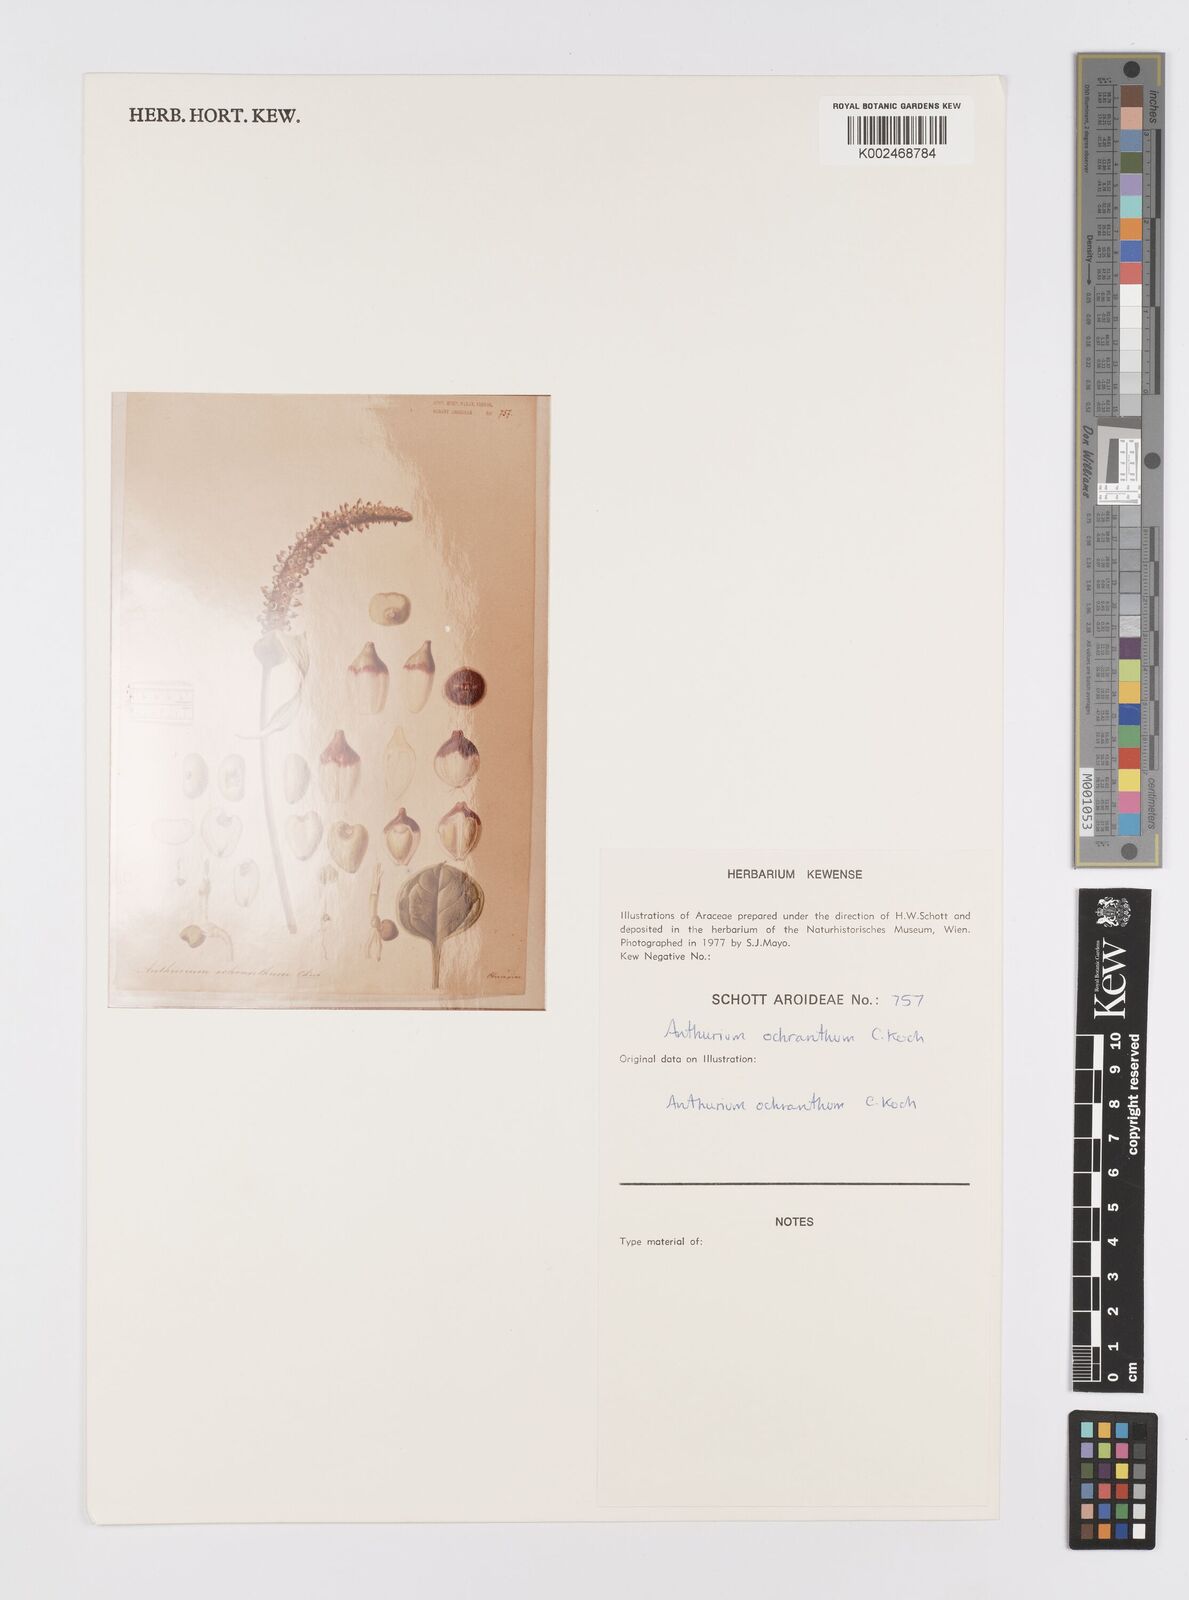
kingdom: Plantae
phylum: Tracheophyta
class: Liliopsida
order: Alismatales
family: Araceae
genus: Anthurium
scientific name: Anthurium ochranthum
